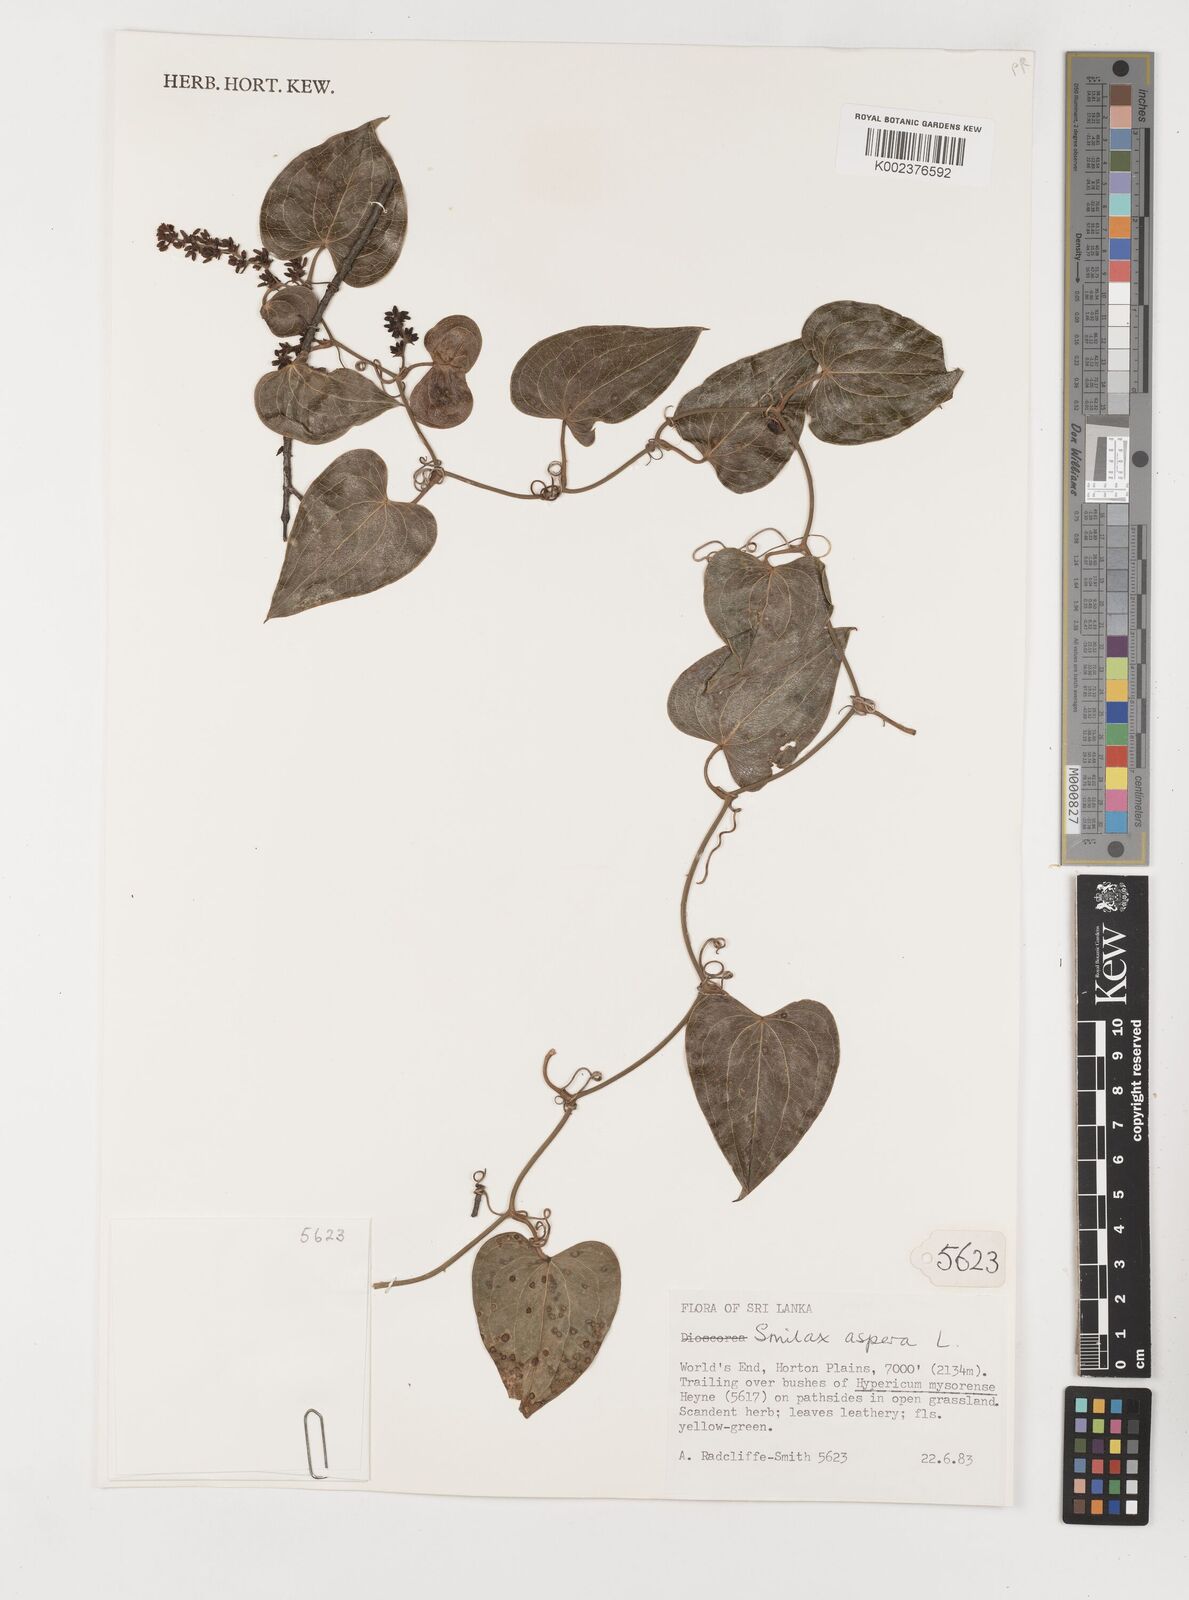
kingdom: Plantae
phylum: Tracheophyta
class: Liliopsida
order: Liliales
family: Smilacaceae
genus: Smilax
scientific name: Smilax aspera
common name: Common smilax
